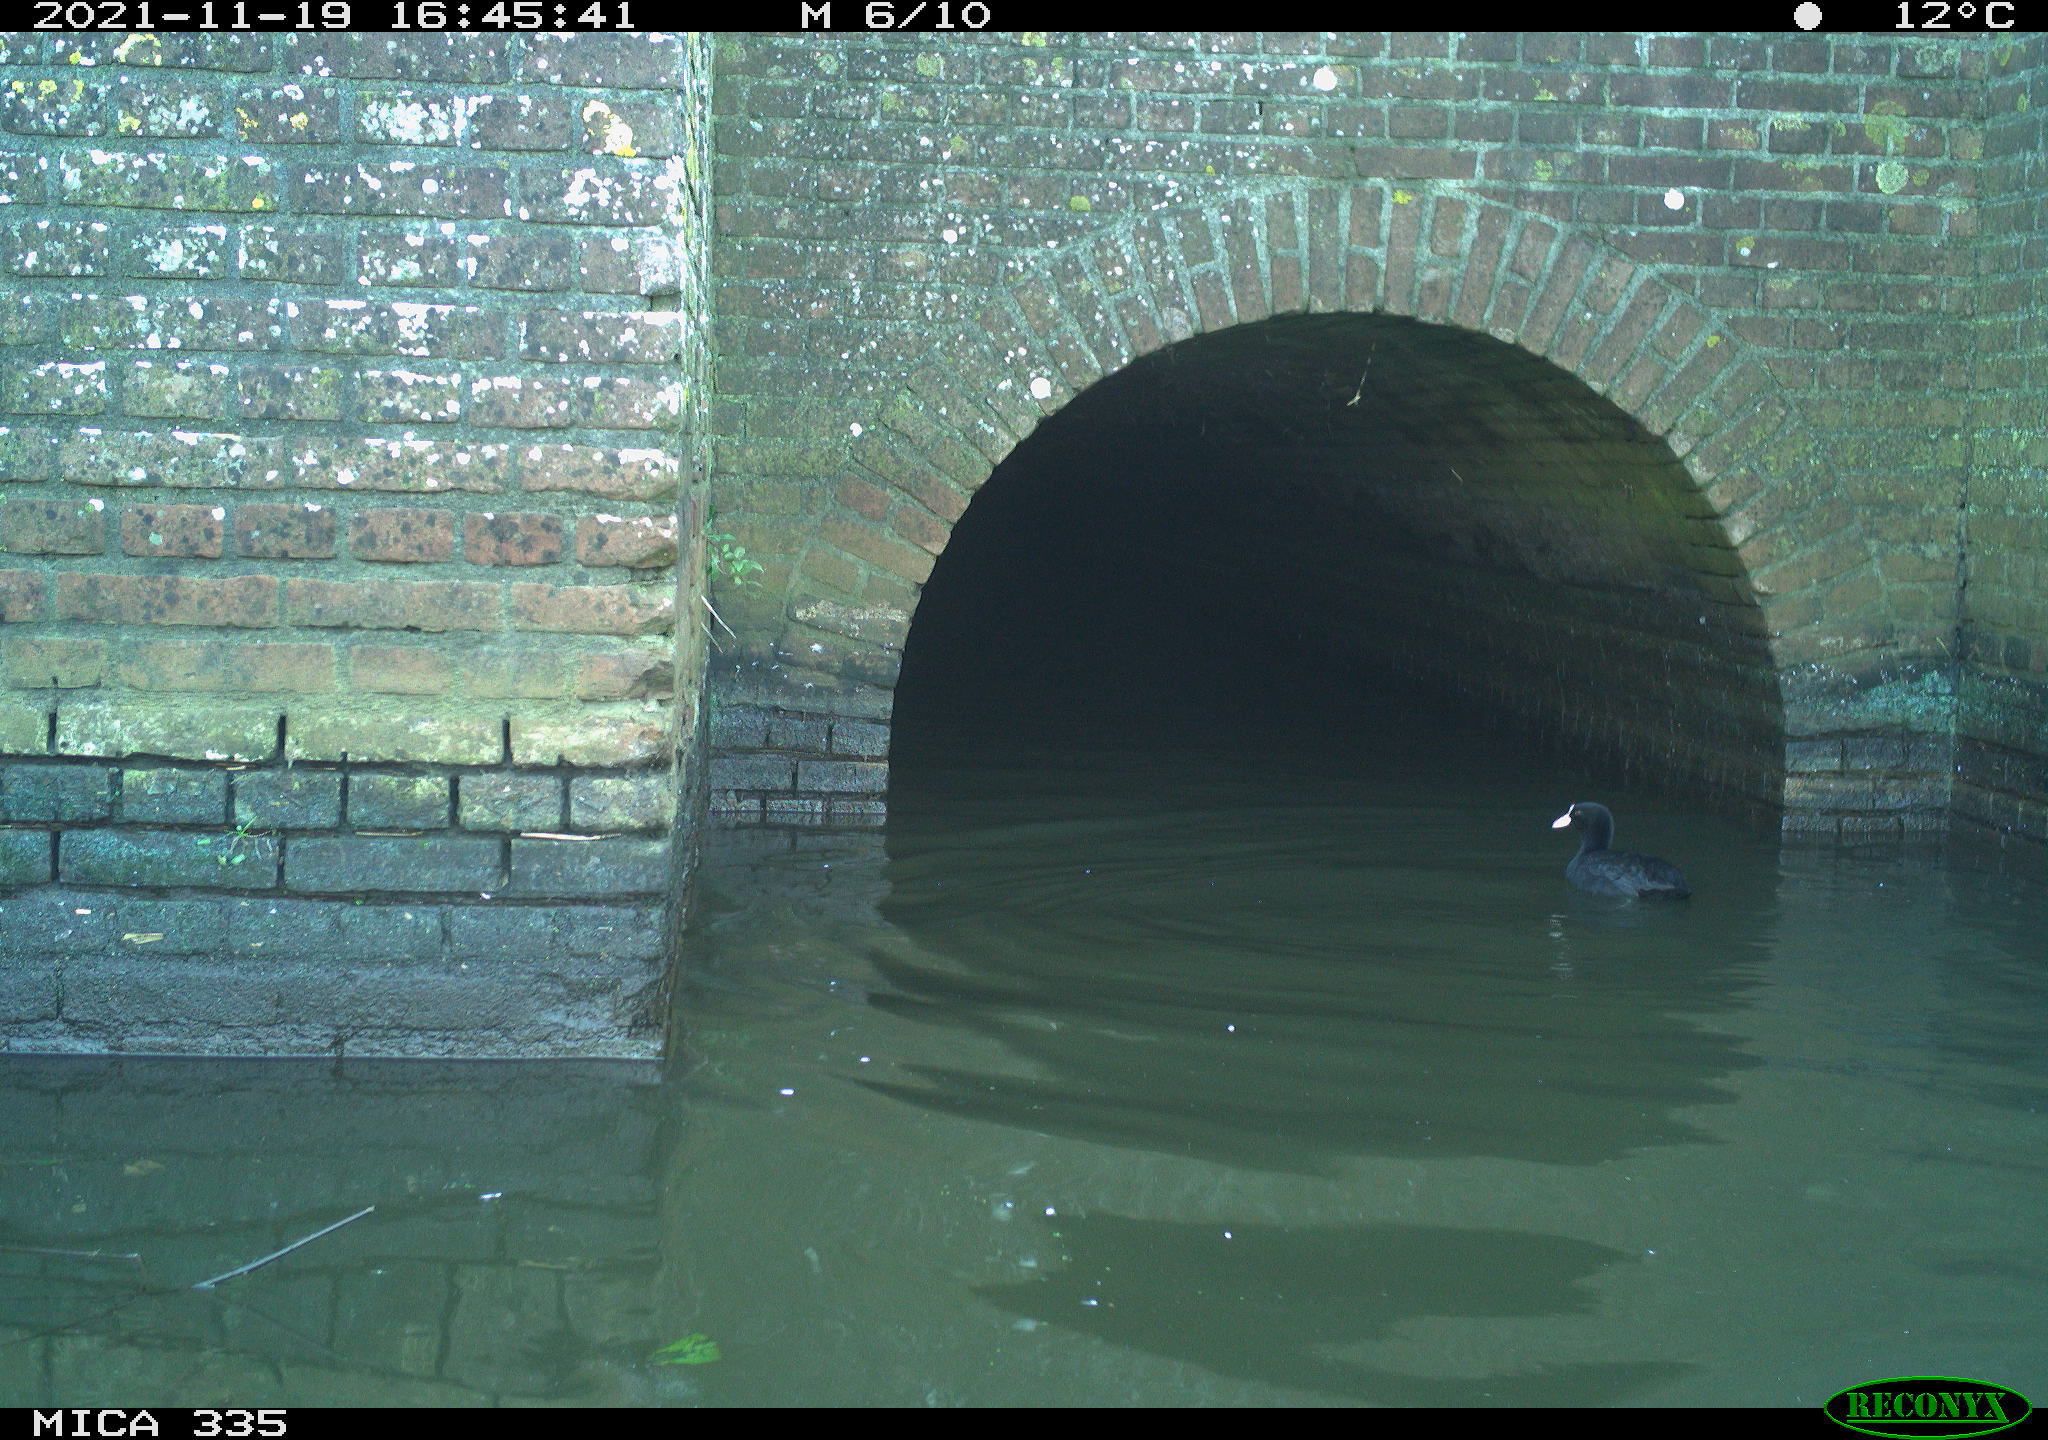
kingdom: Animalia
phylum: Chordata
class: Aves
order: Gruiformes
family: Rallidae
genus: Fulica
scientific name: Fulica atra
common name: Eurasian coot
